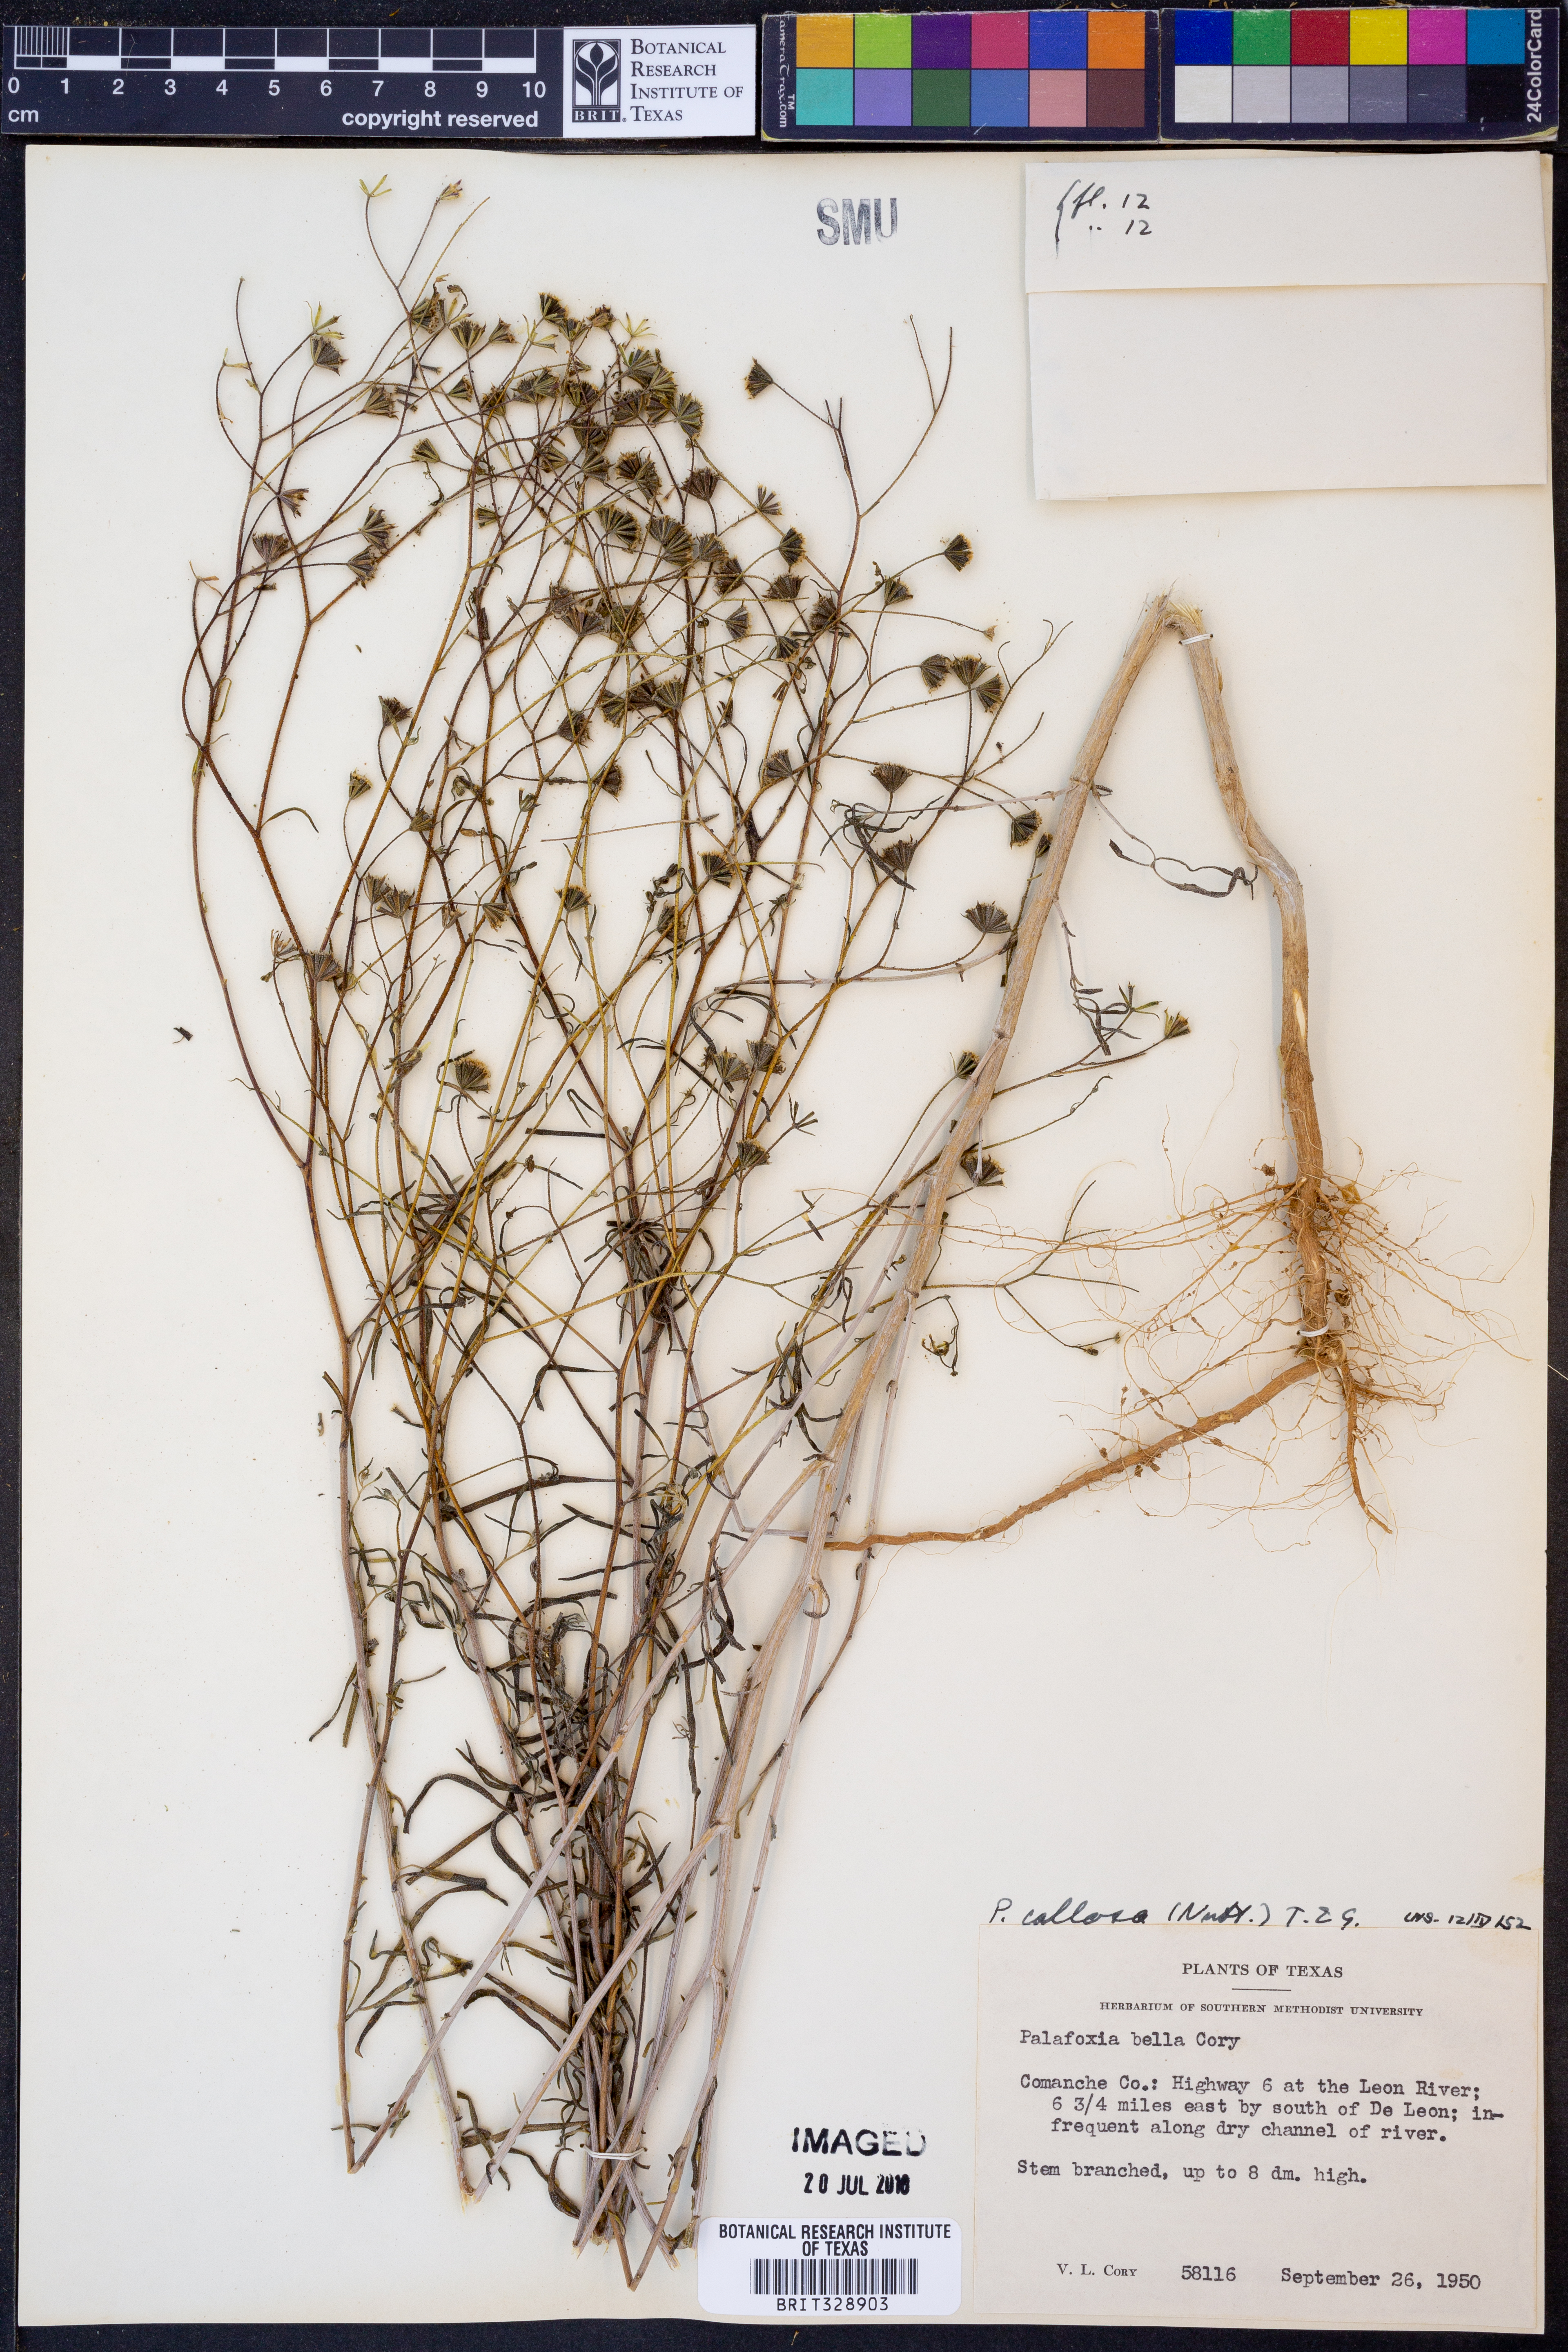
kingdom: Plantae
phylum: Tracheophyta
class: Magnoliopsida
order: Asterales
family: Asteraceae
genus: Palafoxia
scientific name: Palafoxia callosa
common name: Small palafox
